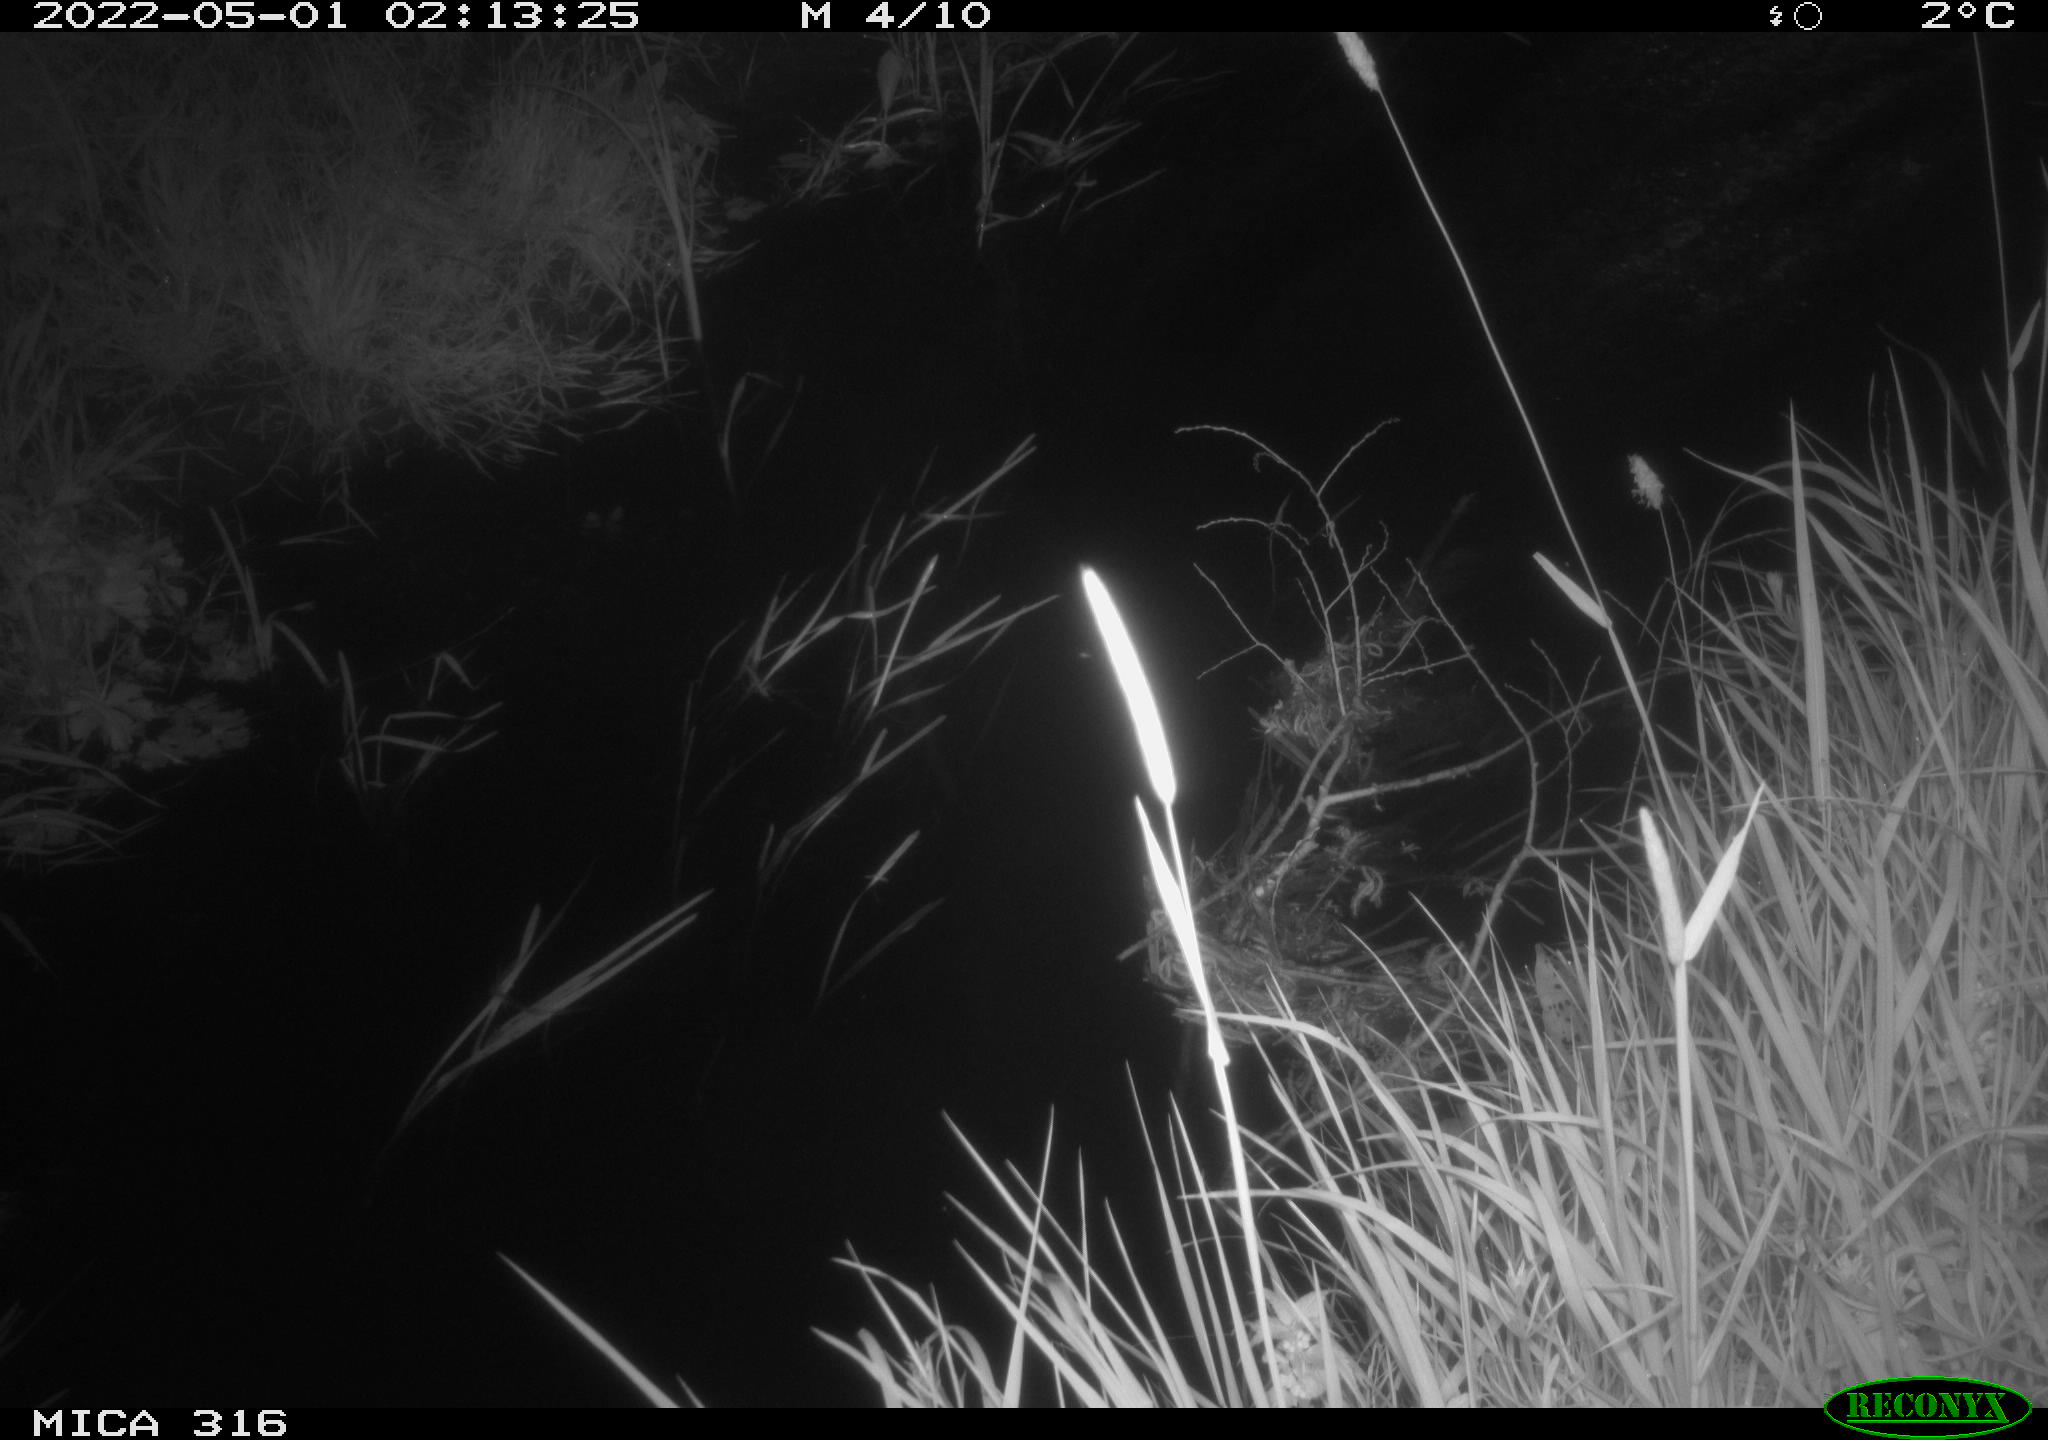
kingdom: Animalia
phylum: Chordata
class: Aves
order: Anseriformes
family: Anatidae
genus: Anas
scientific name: Anas platyrhynchos
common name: Mallard
